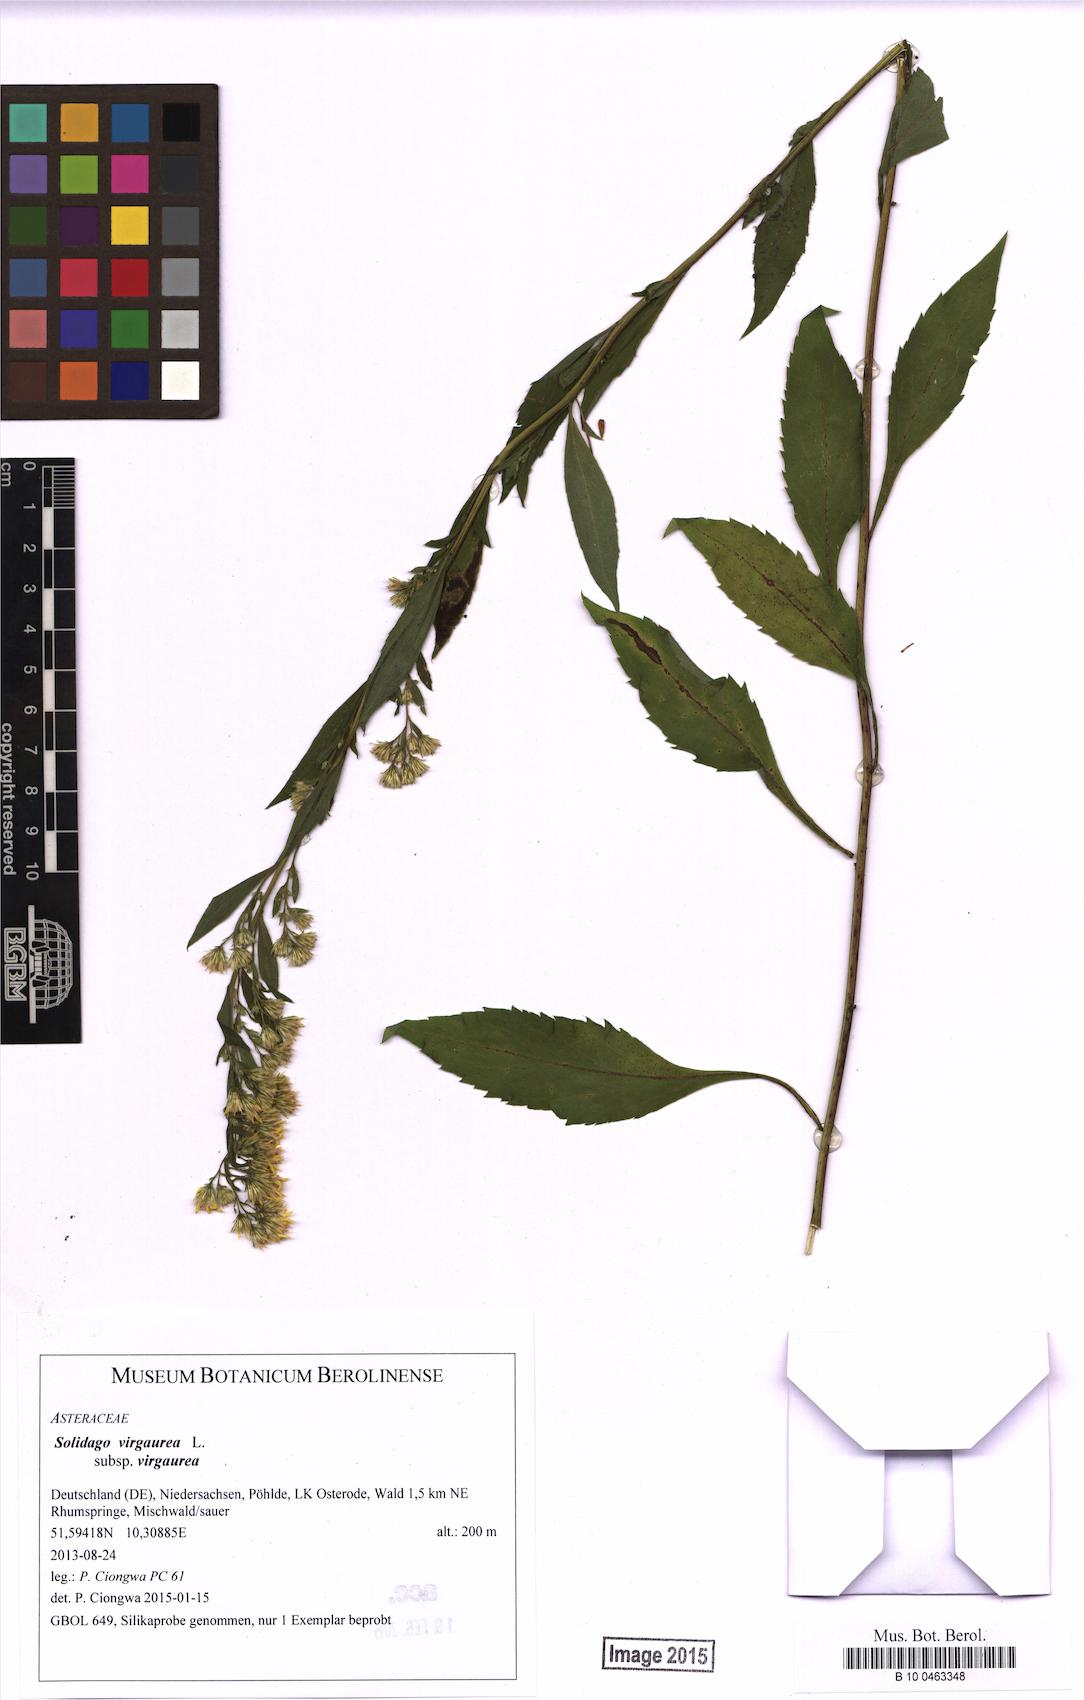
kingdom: Plantae
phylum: Tracheophyta
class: Magnoliopsida
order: Asterales
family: Asteraceae
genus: Solidago
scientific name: Solidago virgaurea
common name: Goldenrod
